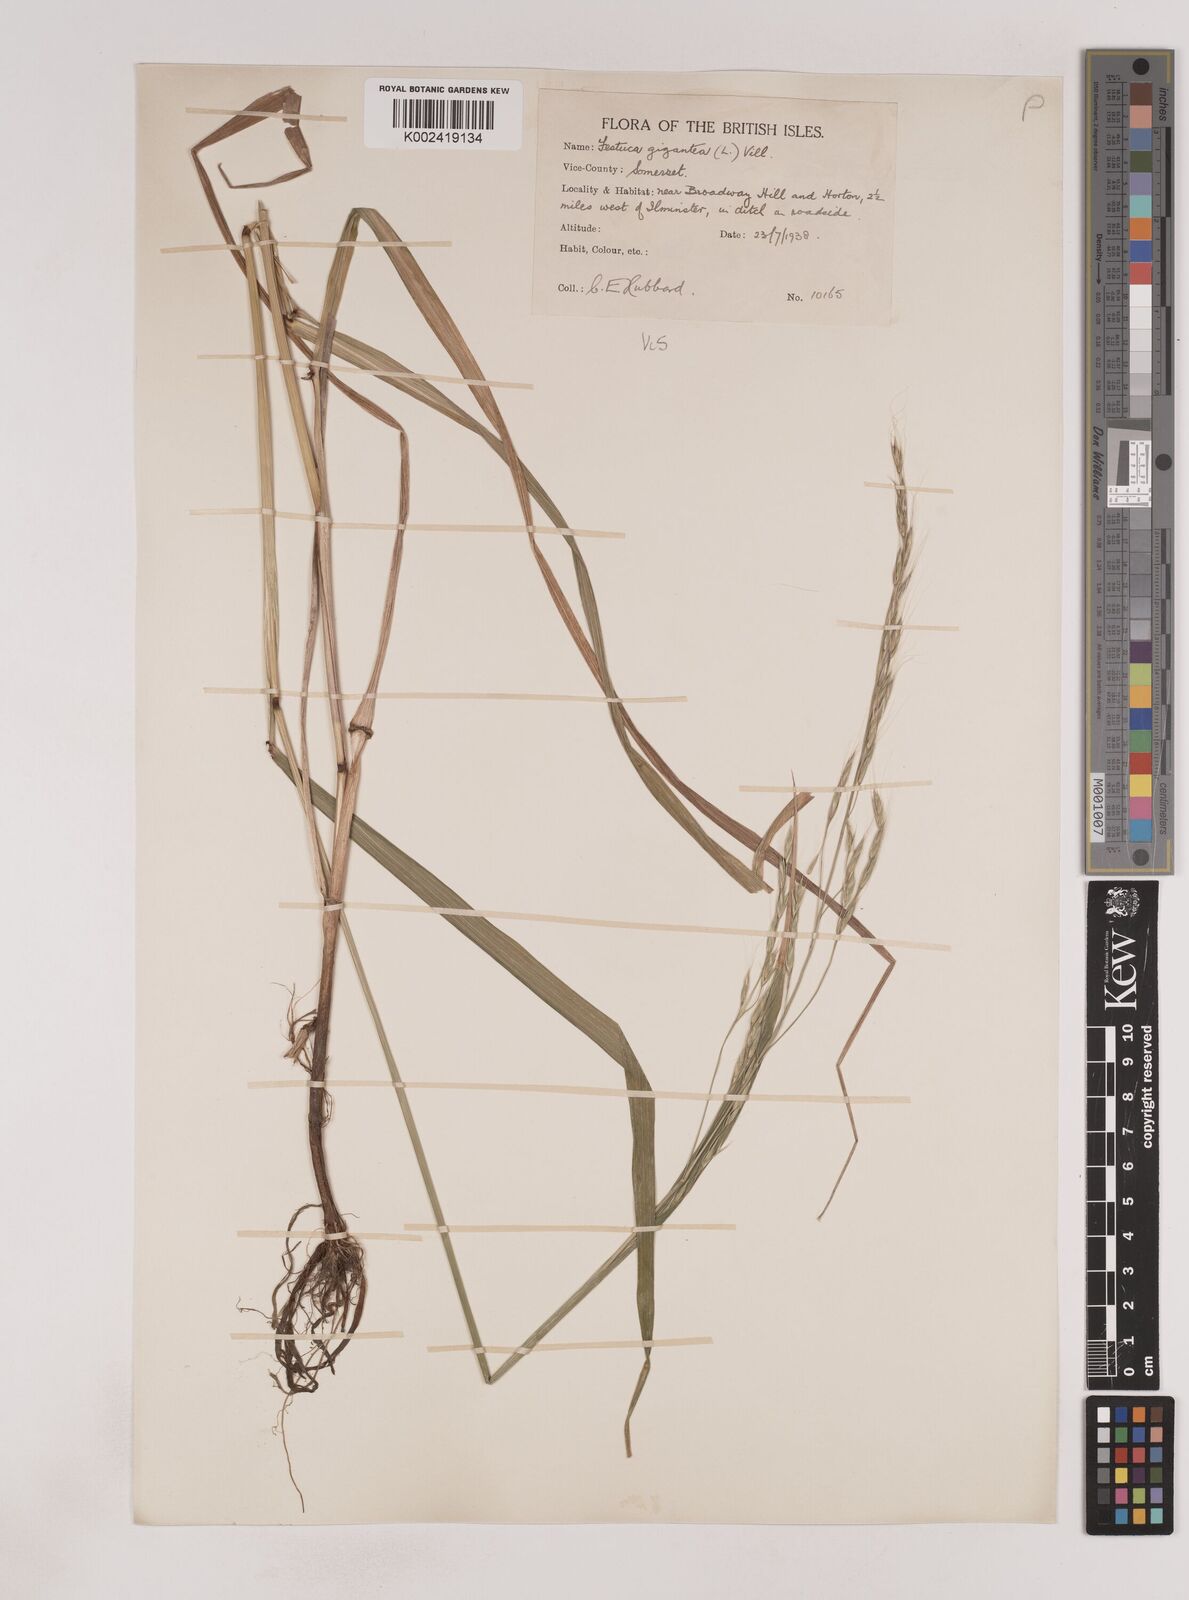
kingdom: Plantae
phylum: Tracheophyta
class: Liliopsida
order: Poales
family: Poaceae
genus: Lolium
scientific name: Lolium giganteum
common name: Giant fescue
